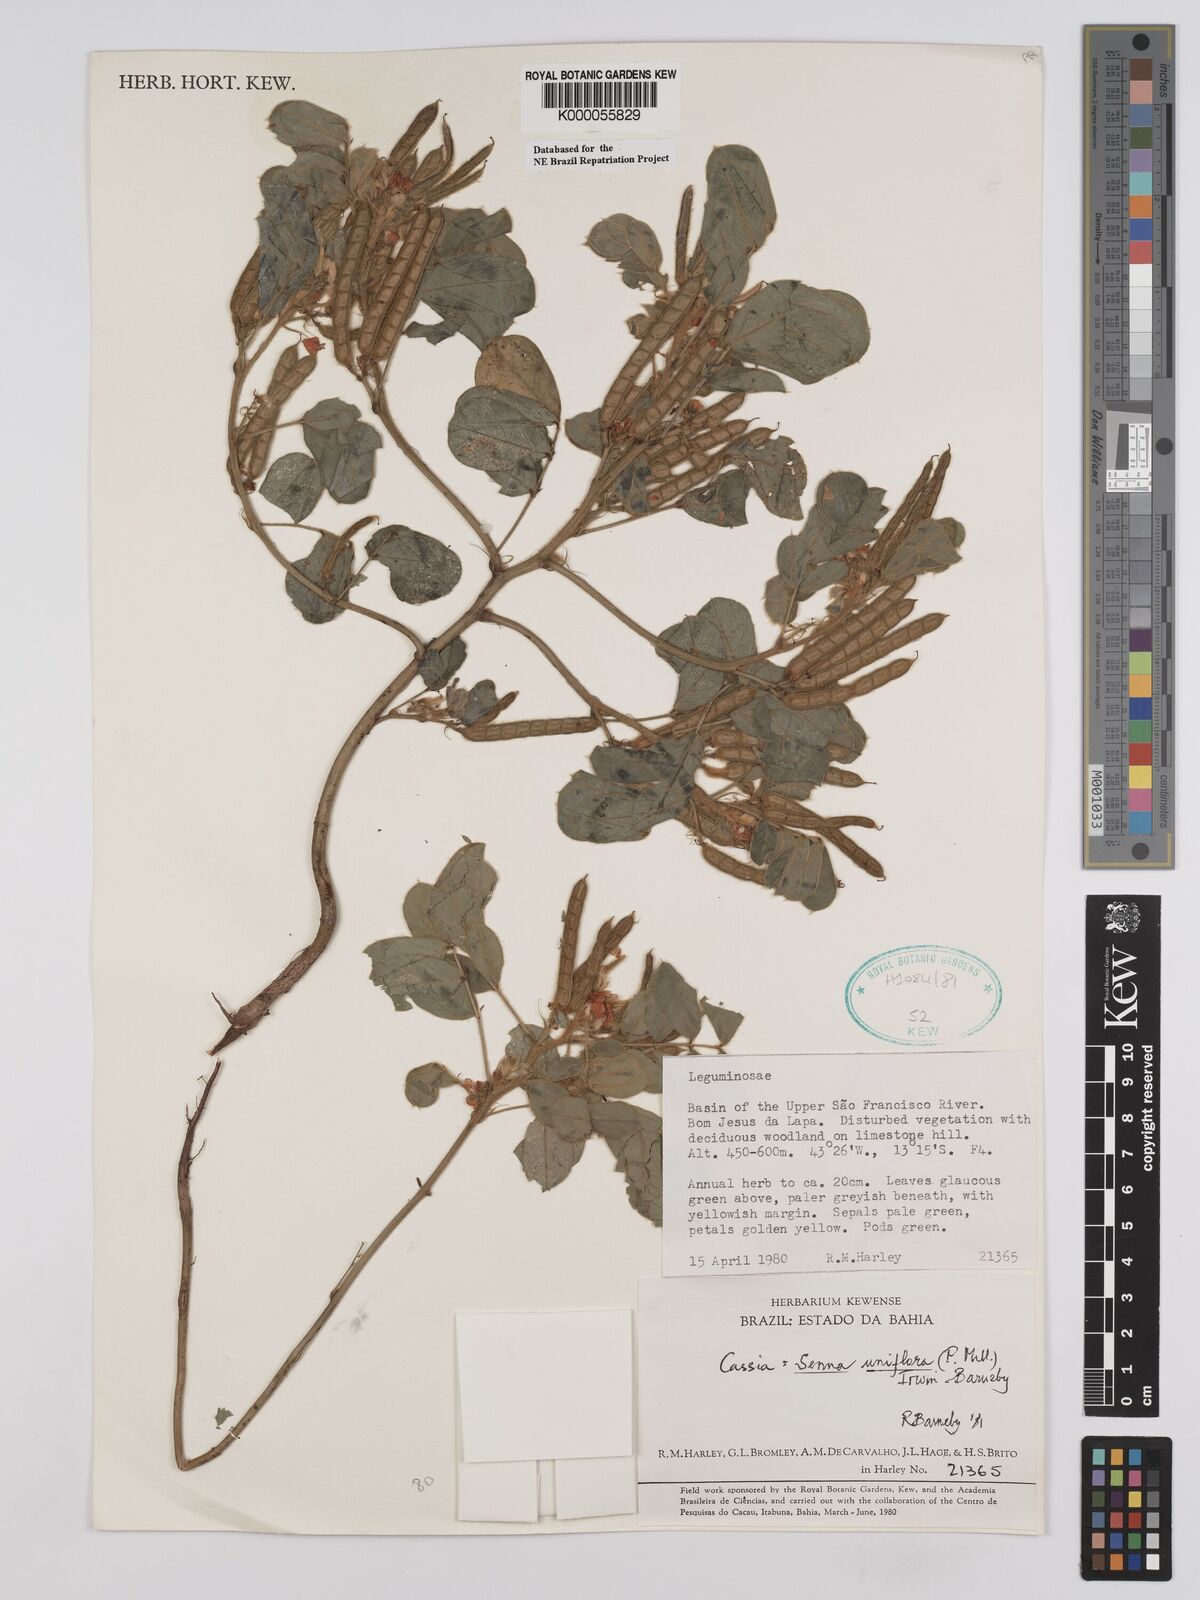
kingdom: Plantae
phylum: Tracheophyta
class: Magnoliopsida
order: Fabales
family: Fabaceae
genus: Senna
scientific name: Senna uniflora
